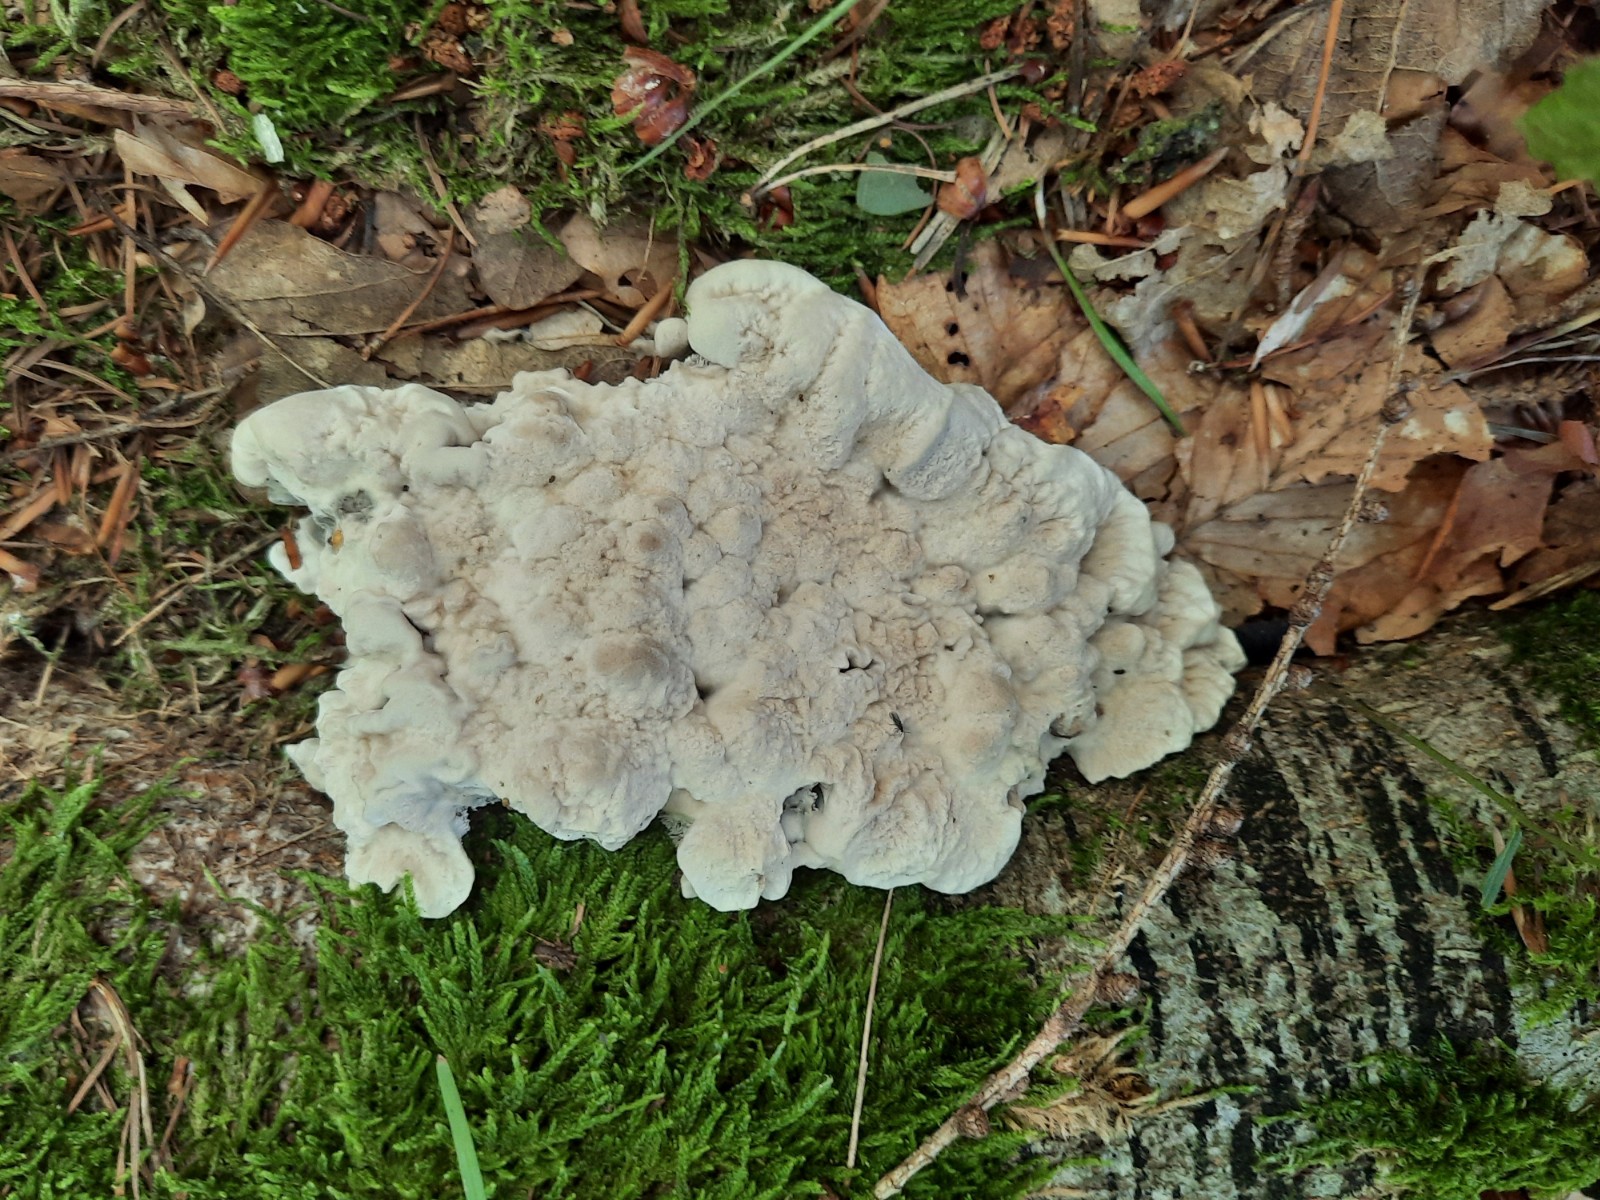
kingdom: Fungi
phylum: Basidiomycota
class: Agaricomycetes
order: Thelephorales
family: Thelephoraceae
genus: Phellodon
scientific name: Phellodon confluens
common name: pjaltet duftpigsvamp
